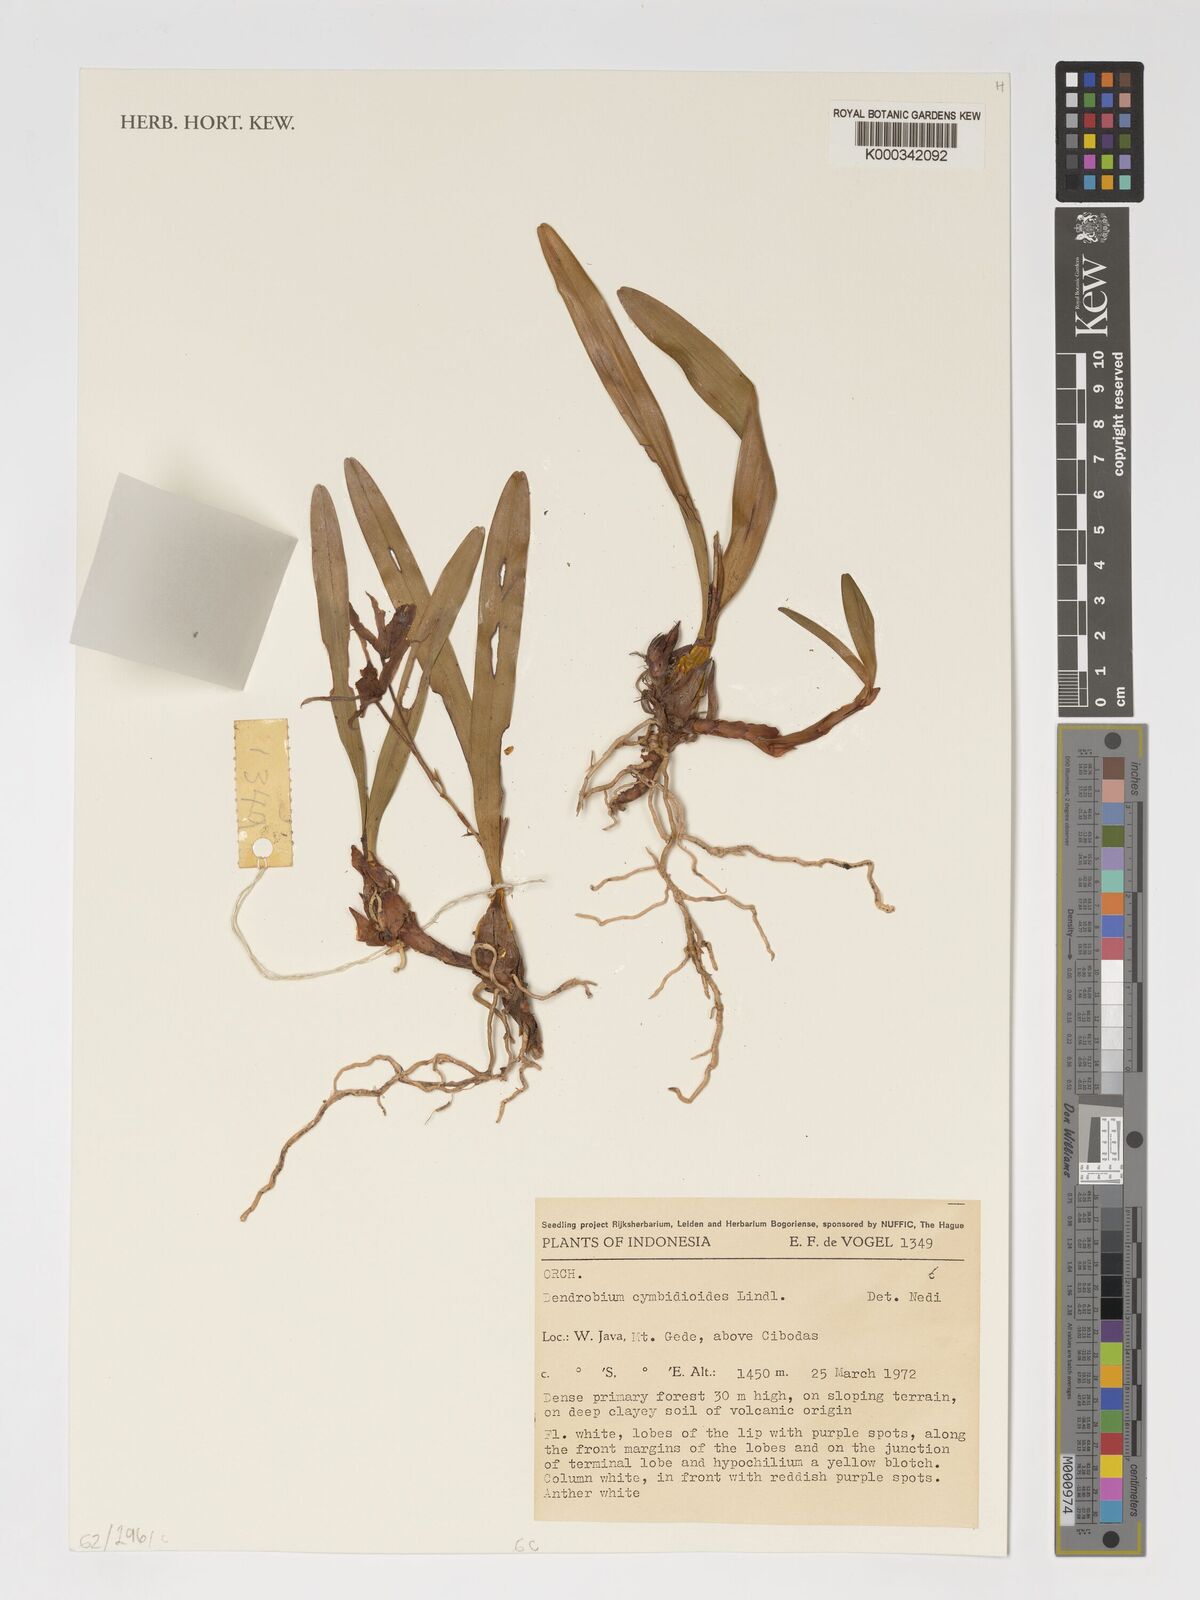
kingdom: Plantae
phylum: Tracheophyta
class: Liliopsida
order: Asparagales
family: Orchidaceae
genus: Dendrobium
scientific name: Dendrobium cymbidioides
